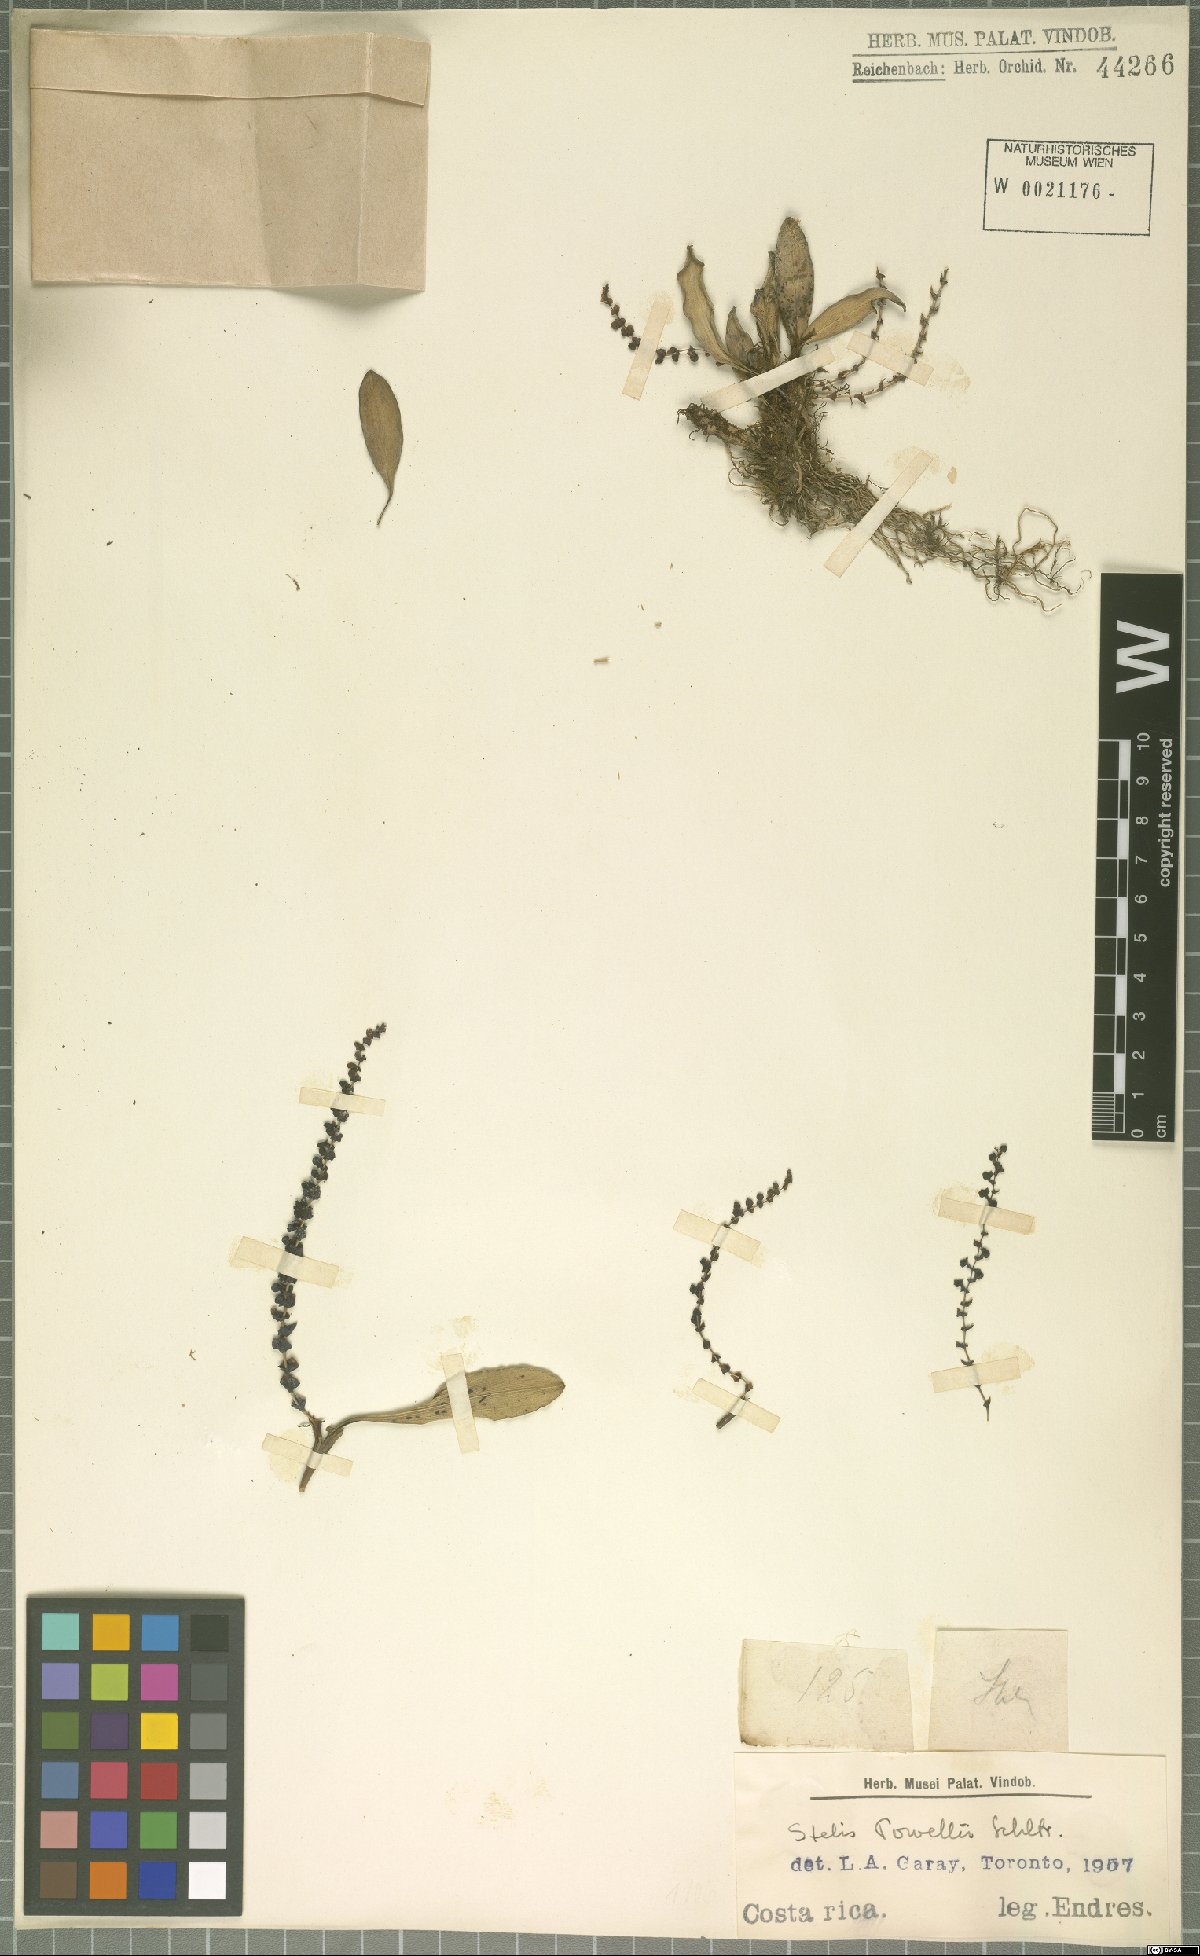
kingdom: Plantae
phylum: Tracheophyta
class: Liliopsida
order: Asparagales
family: Orchidaceae
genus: Stelis
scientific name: Stelis powellii
